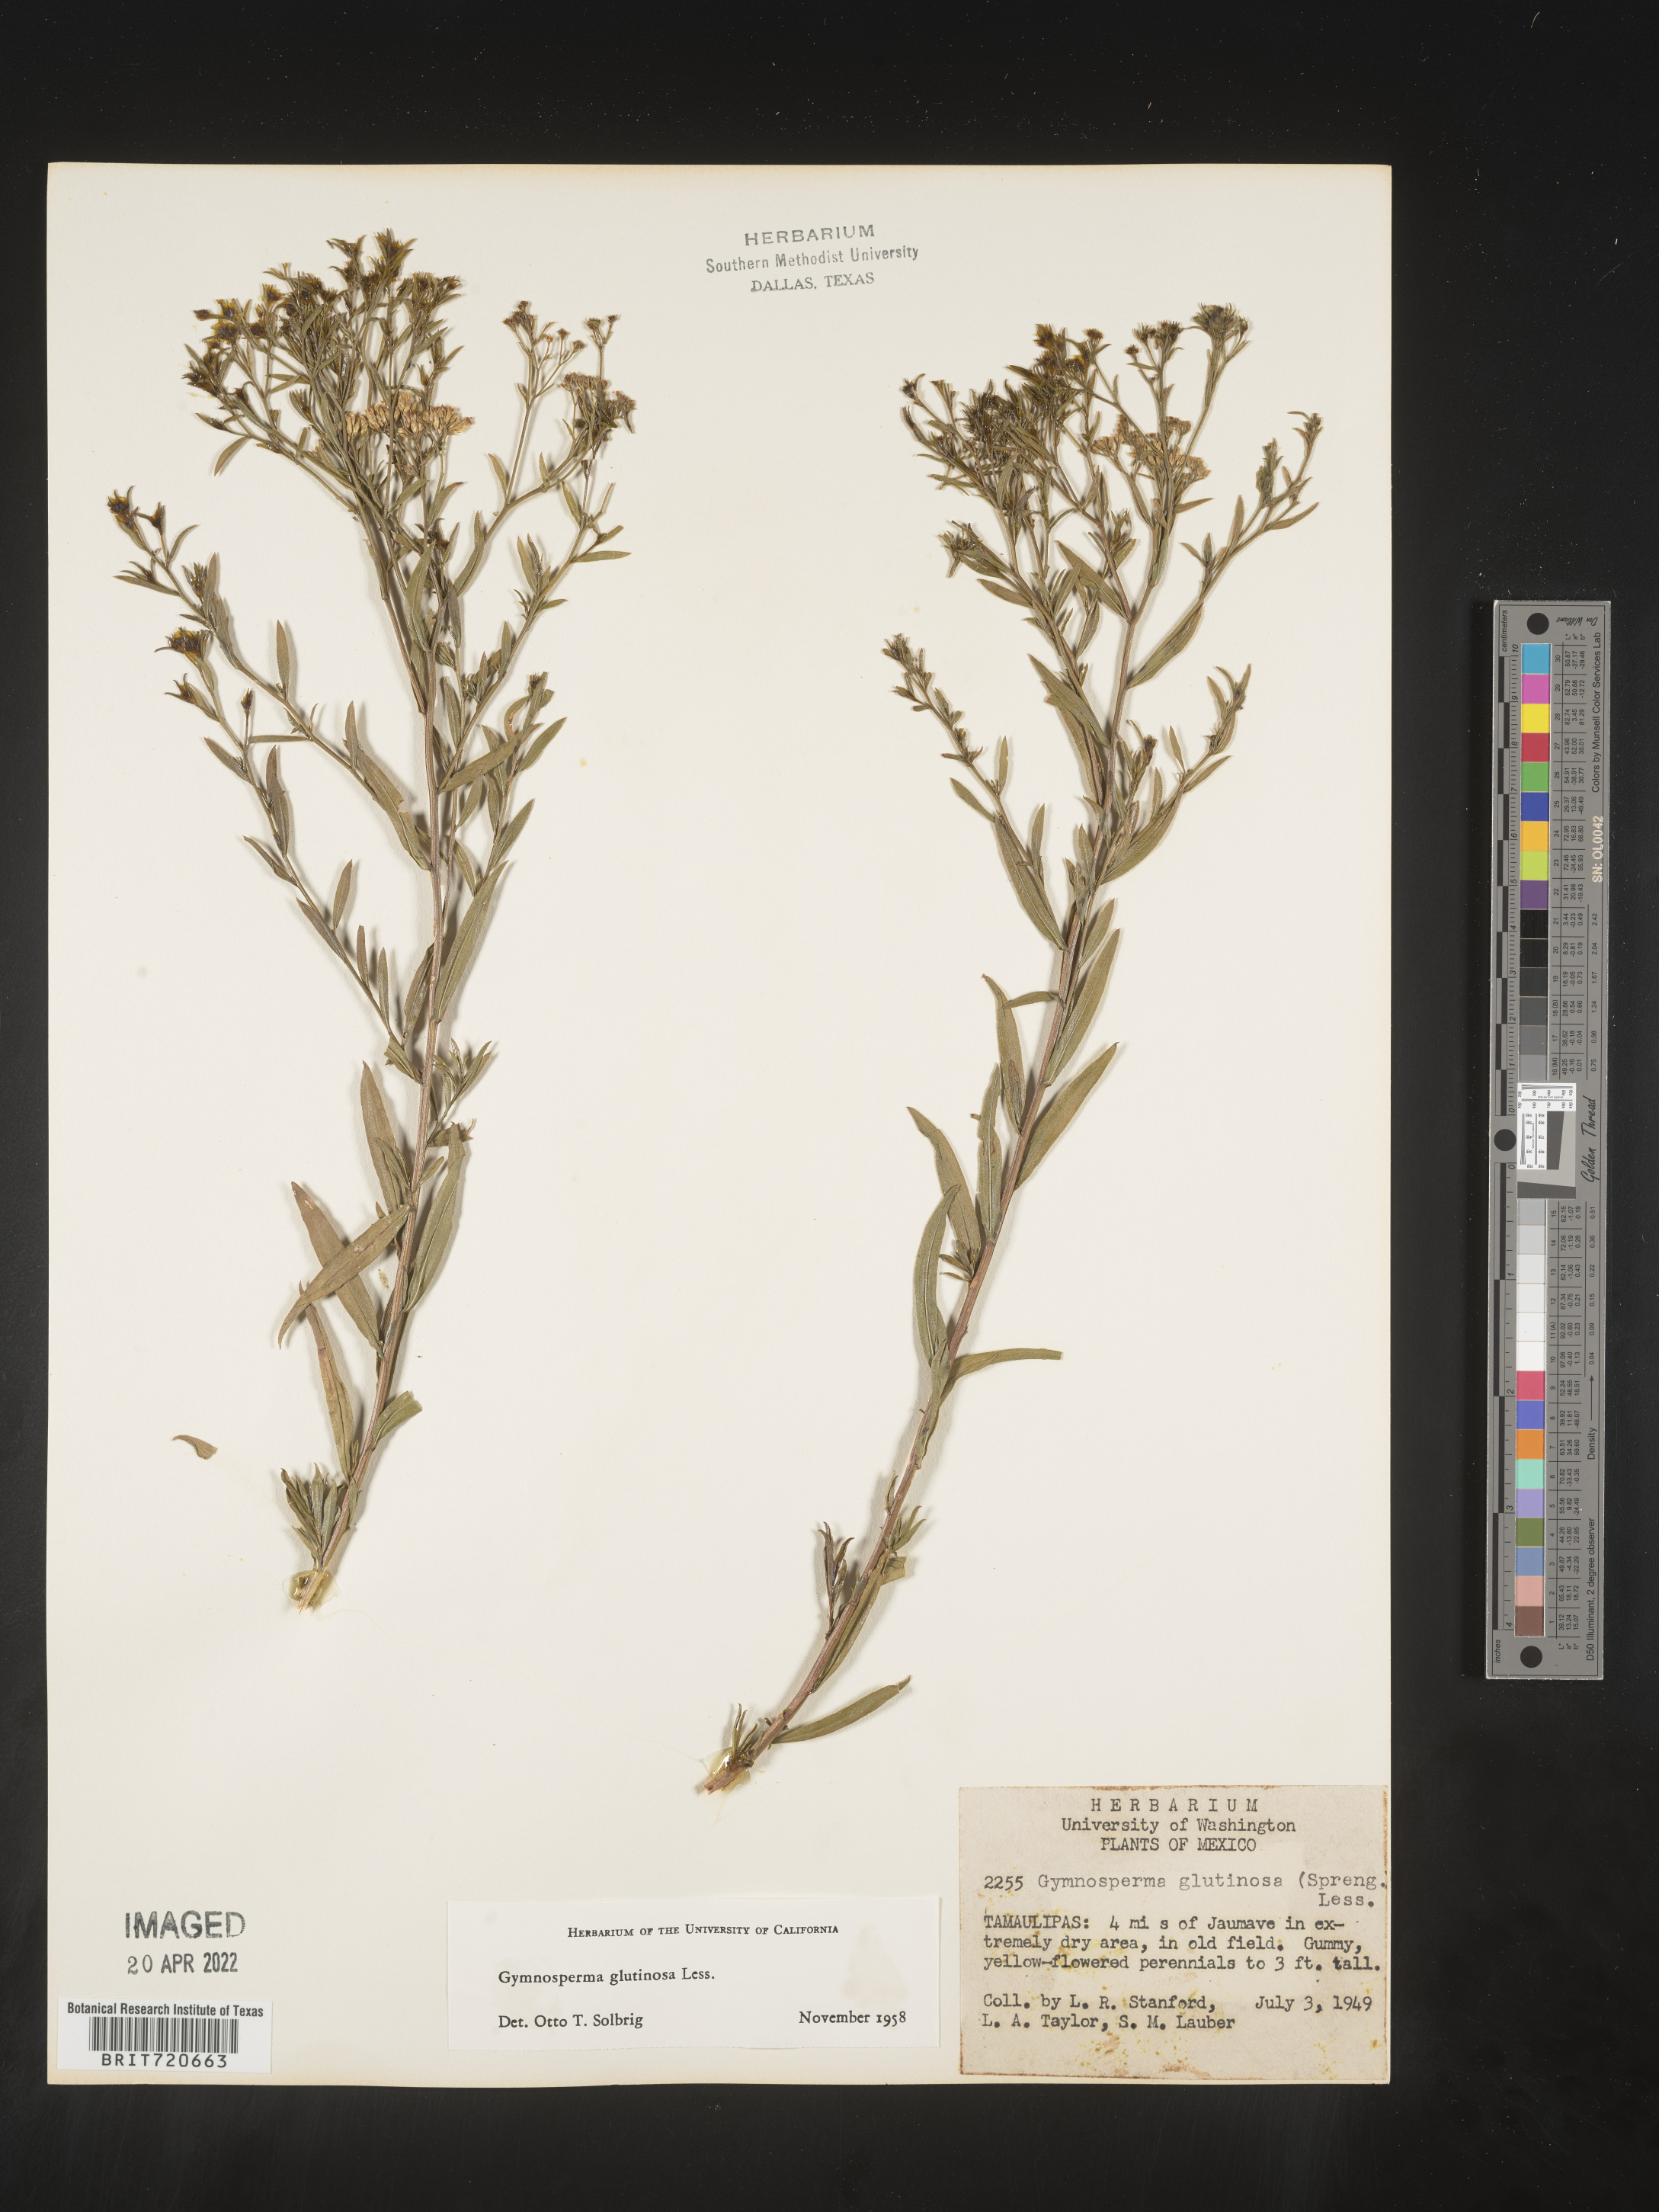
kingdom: Plantae
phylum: Tracheophyta
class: Magnoliopsida
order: Asterales
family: Asteraceae
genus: Gymnosperma
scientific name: Gymnosperma glutinosum
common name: Gumhead
